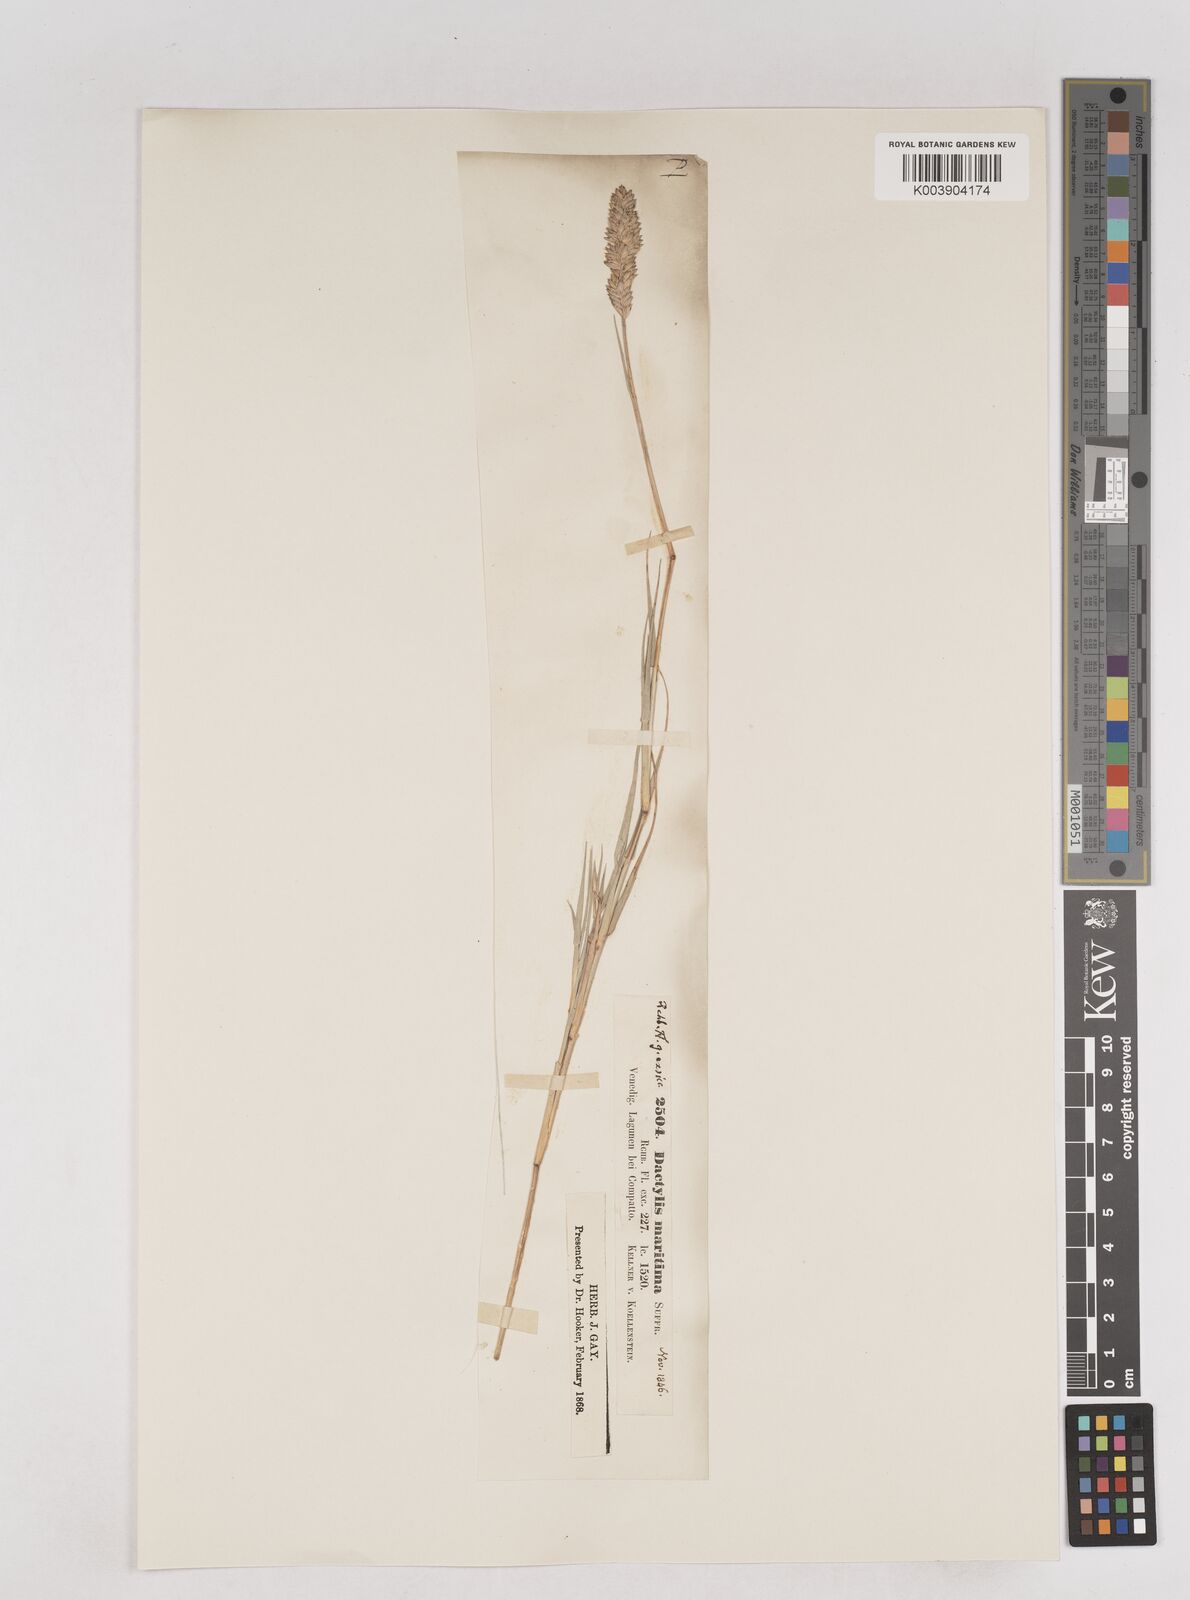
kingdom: Plantae
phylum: Tracheophyta
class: Liliopsida
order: Poales
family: Poaceae
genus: Aeluropus
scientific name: Aeluropus littoralis
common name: Indian walnut
